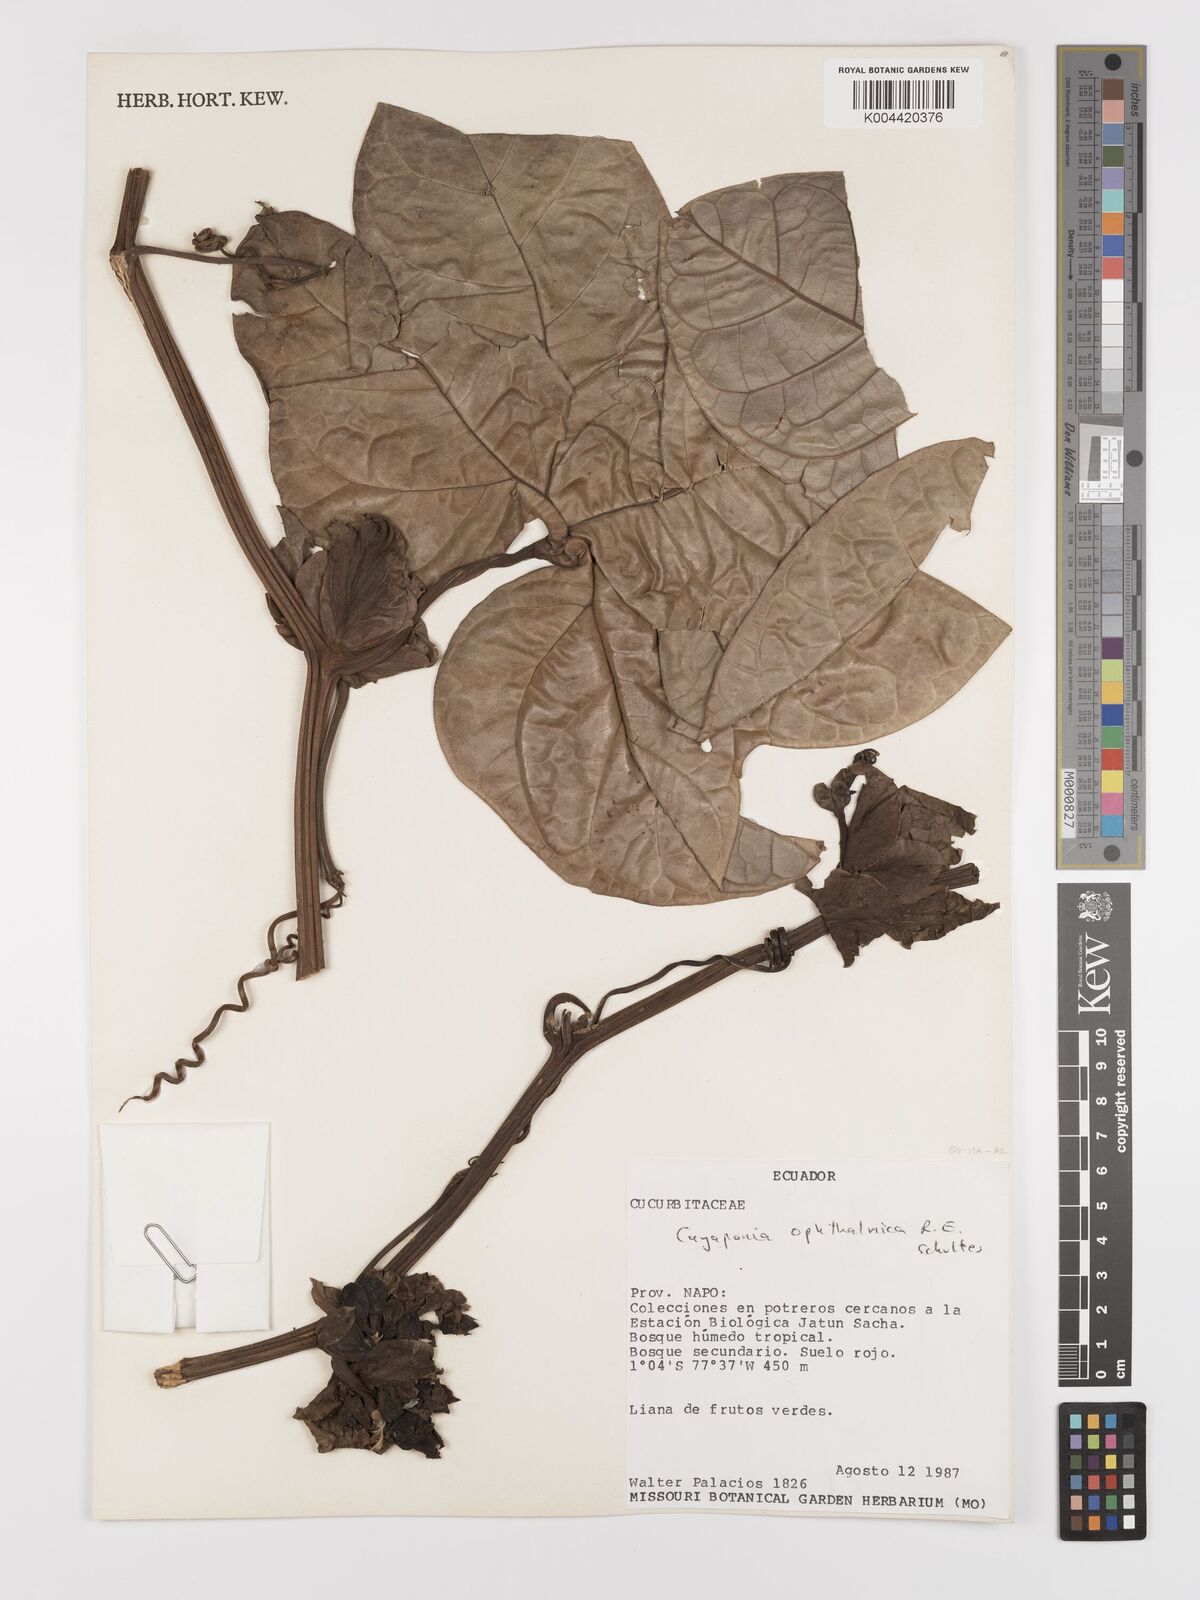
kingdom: Plantae
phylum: Tracheophyta
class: Magnoliopsida
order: Cucurbitales
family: Cucurbitaceae
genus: Cayaponia
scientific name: Cayaponia ophthalmica
